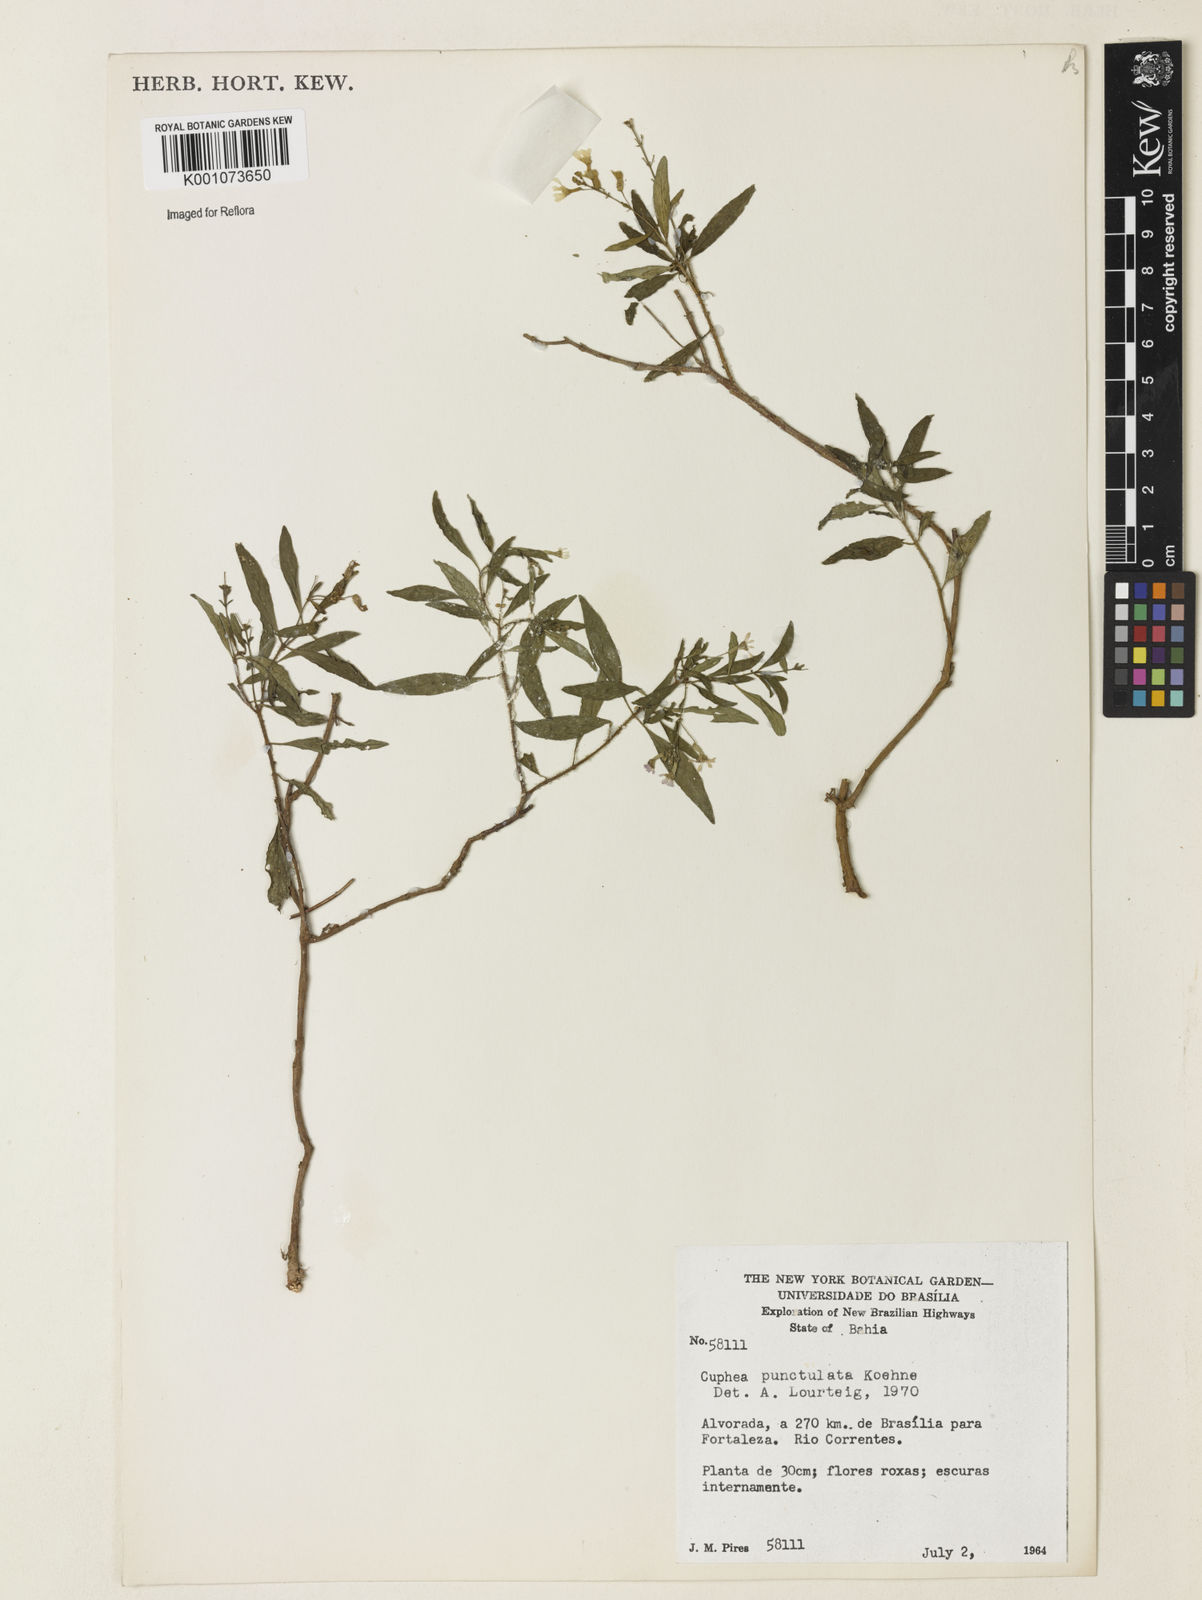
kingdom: Plantae
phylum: Tracheophyta
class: Magnoliopsida
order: Myrtales
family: Lythraceae
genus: Cuphea
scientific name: Cuphea punctulata
